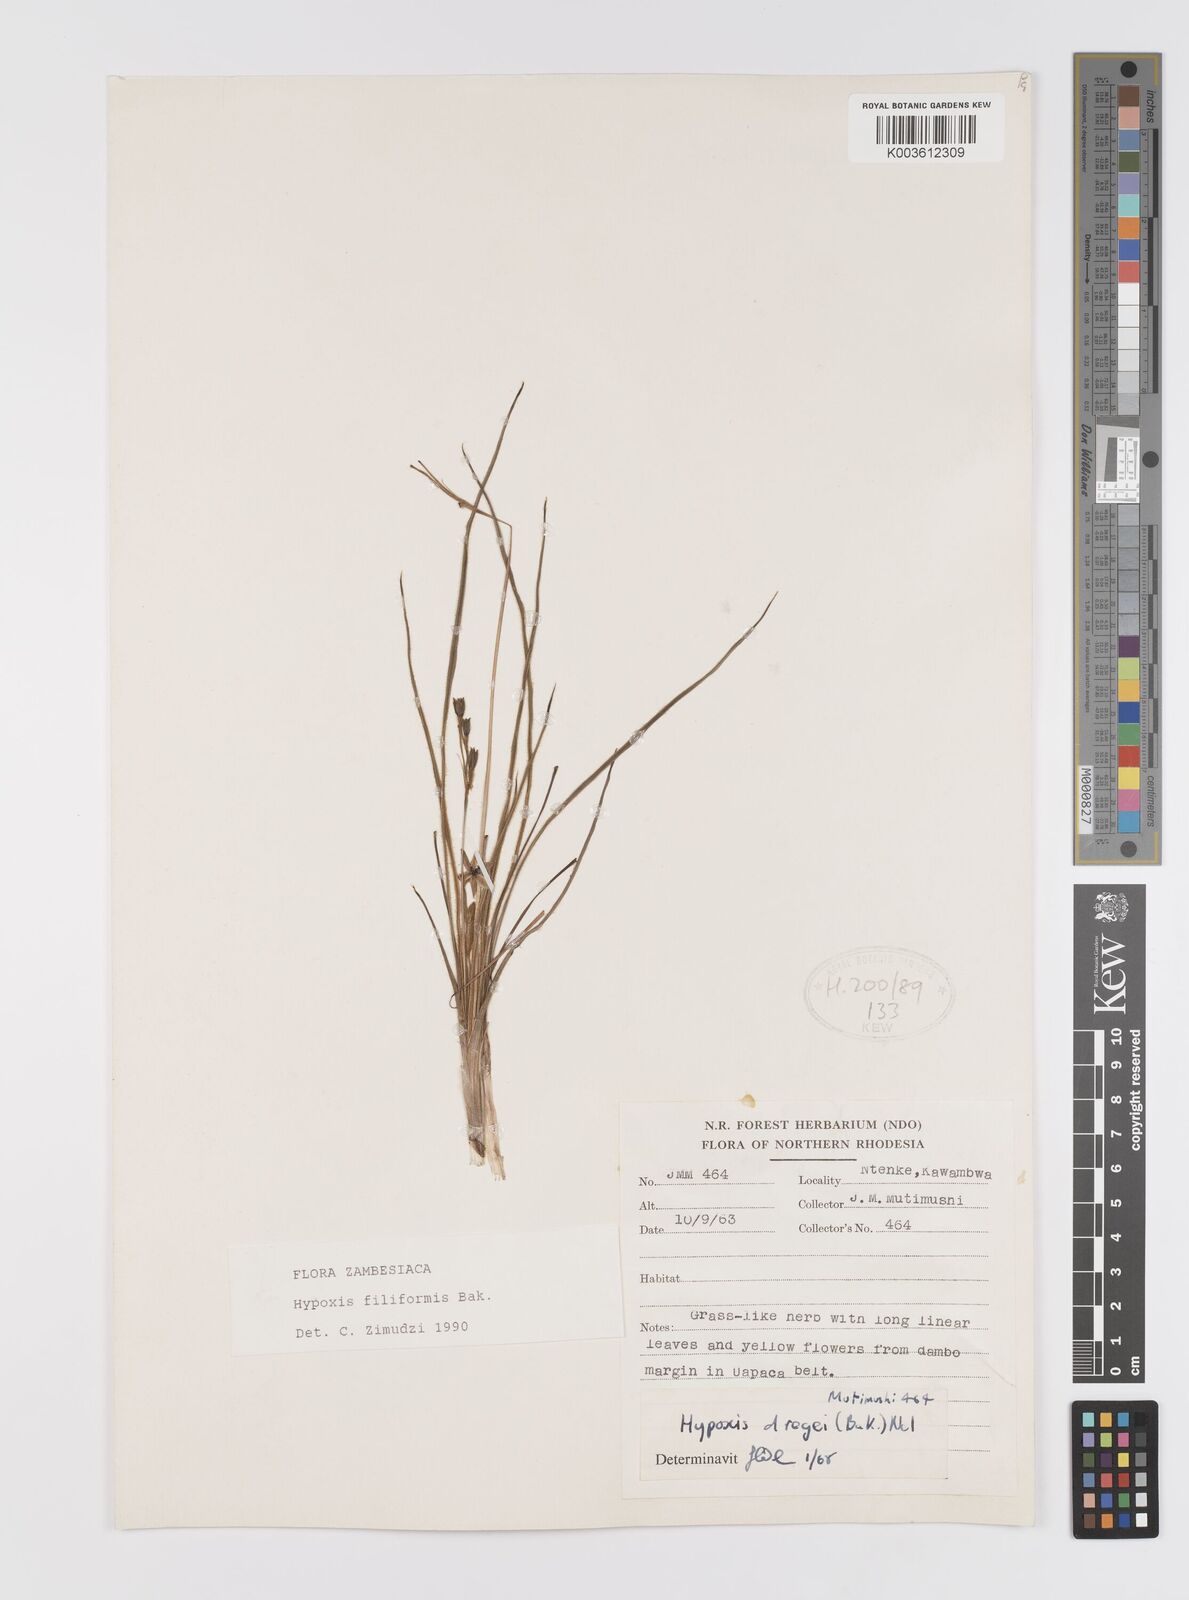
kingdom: Plantae
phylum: Tracheophyta
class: Liliopsida
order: Asparagales
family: Hypoxidaceae
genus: Hypoxis
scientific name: Hypoxis filiformis
